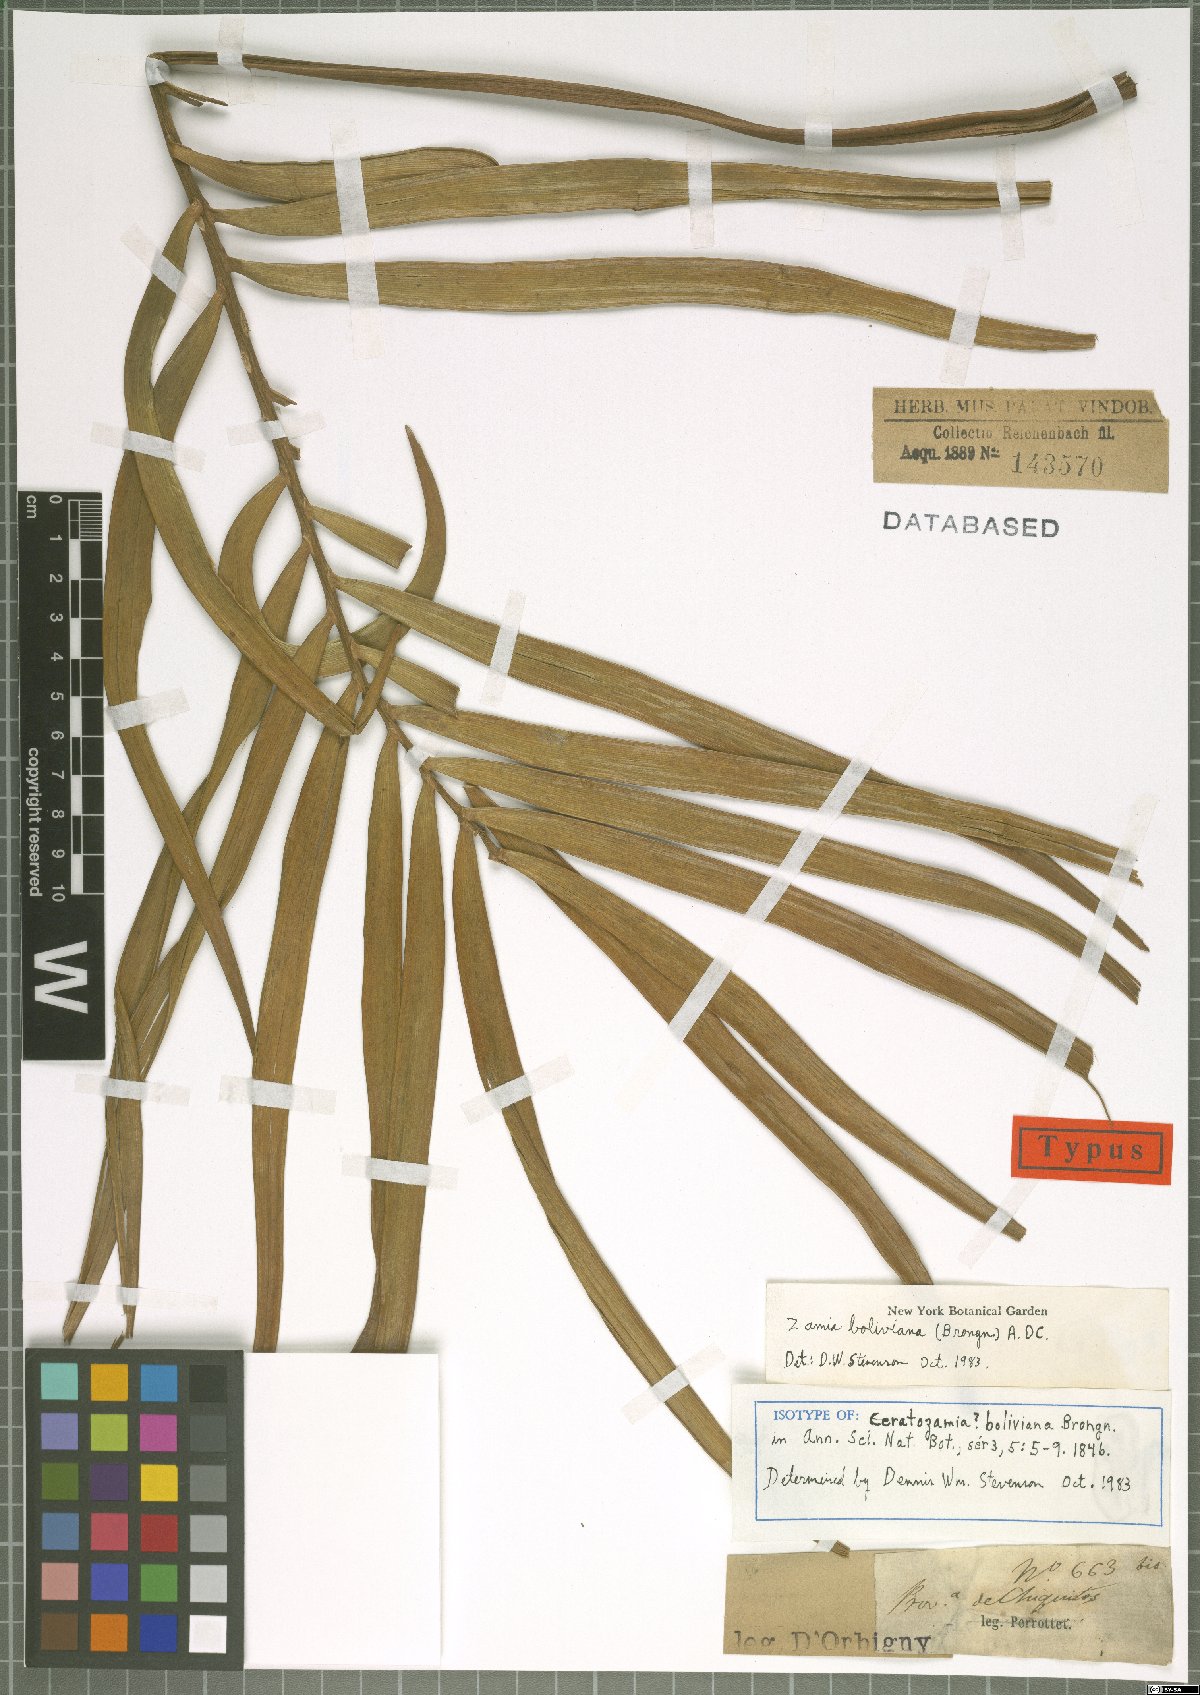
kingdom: Plantae
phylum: Tracheophyta
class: Cycadopsida
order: Cycadales
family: Zamiaceae
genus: Zamia
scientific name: Zamia boliviana
